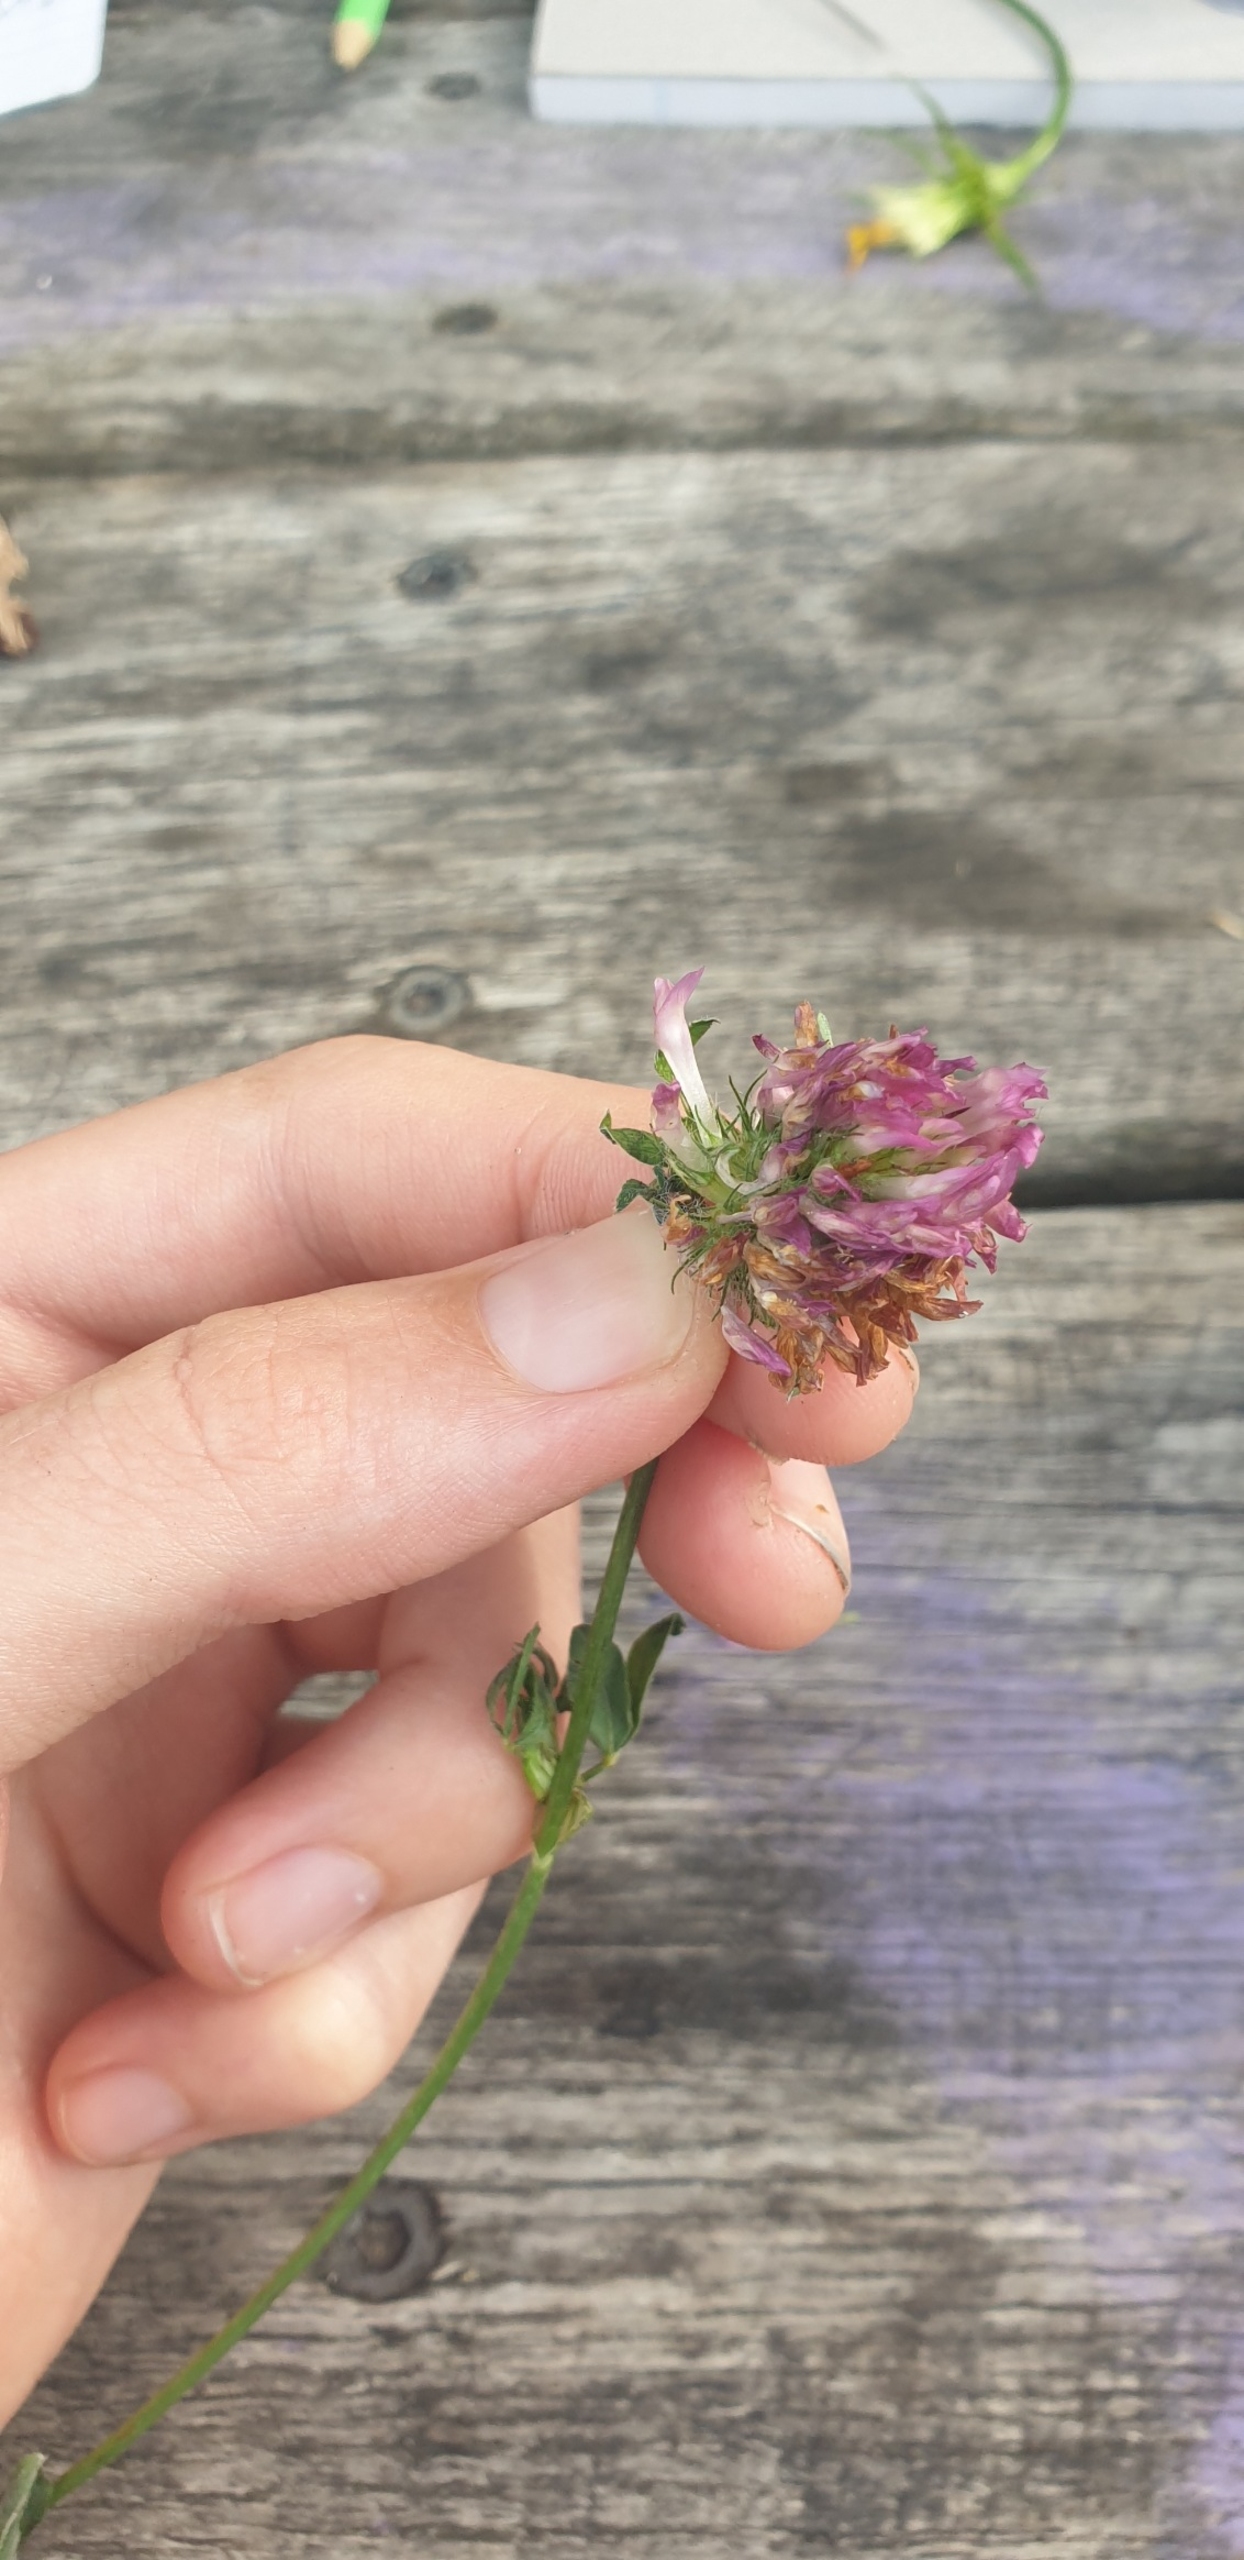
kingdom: Plantae
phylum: Tracheophyta
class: Magnoliopsida
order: Fabales
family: Fabaceae
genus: Trifolium
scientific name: Trifolium pratense
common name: Rød-kløver
